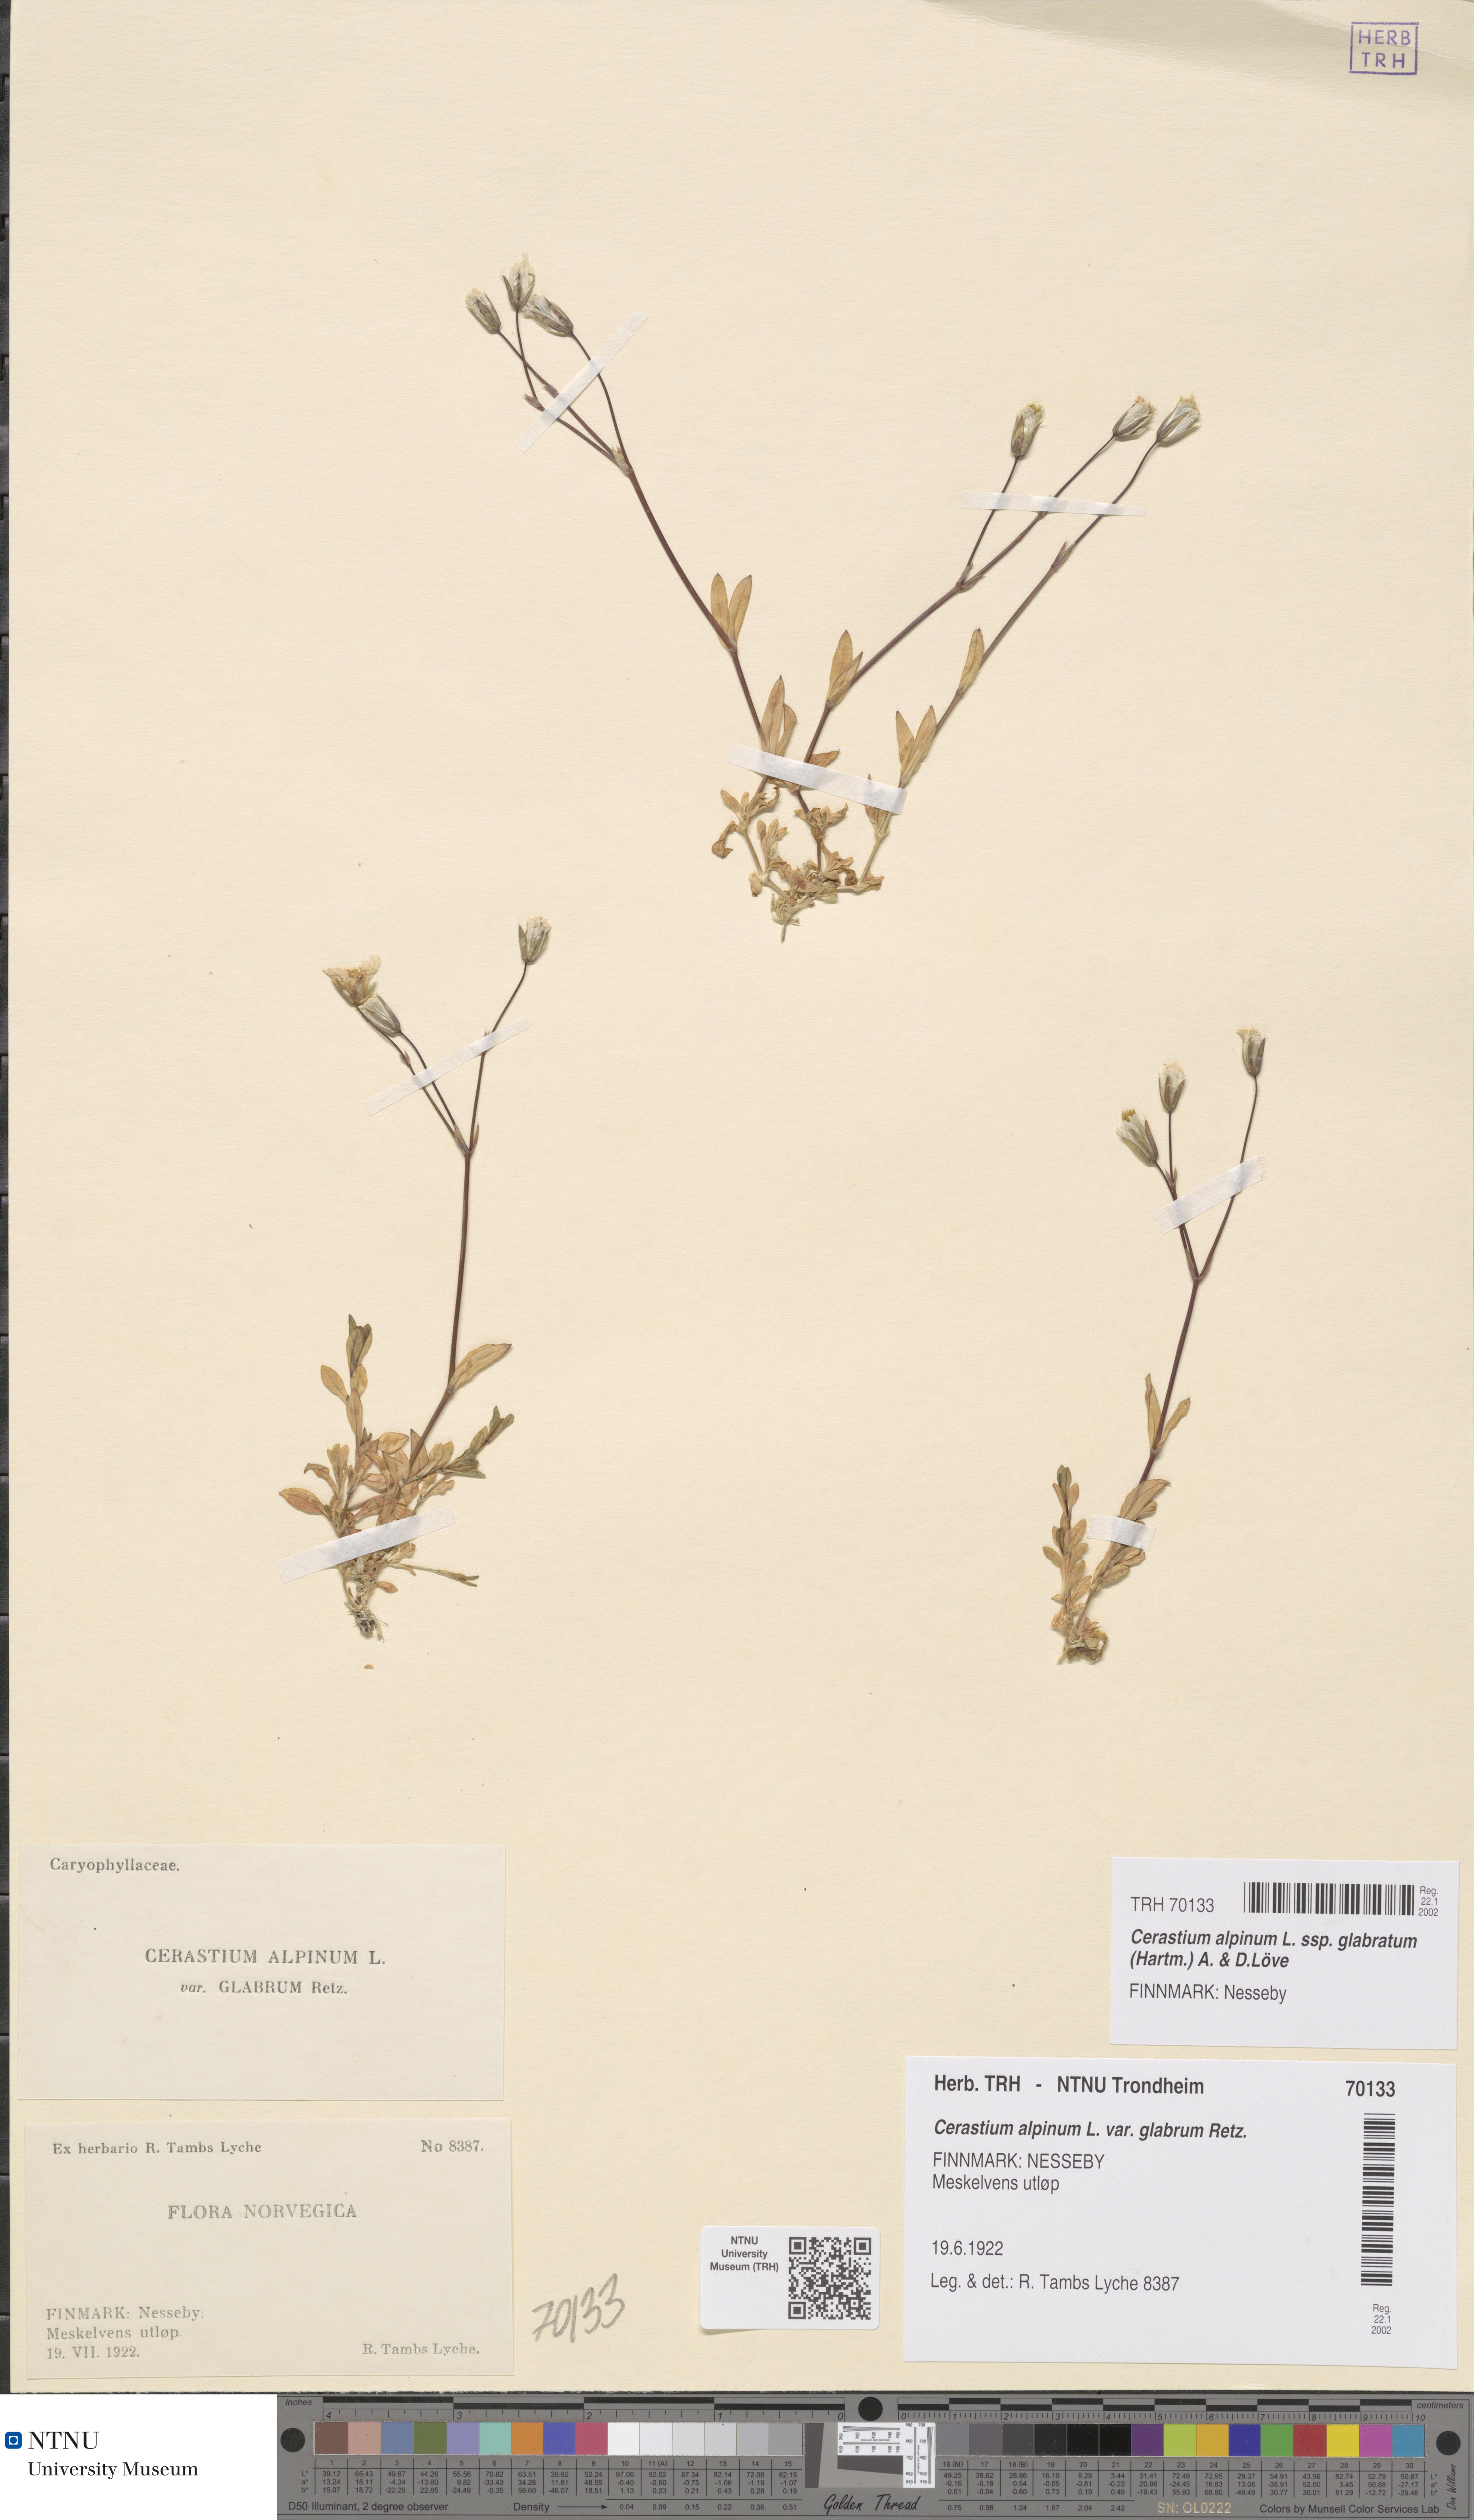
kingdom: Plantae
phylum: Tracheophyta
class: Magnoliopsida
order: Caryophyllales
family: Caryophyllaceae
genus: Cerastium
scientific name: Cerastium alpinum
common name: Alpine mouse-ear
